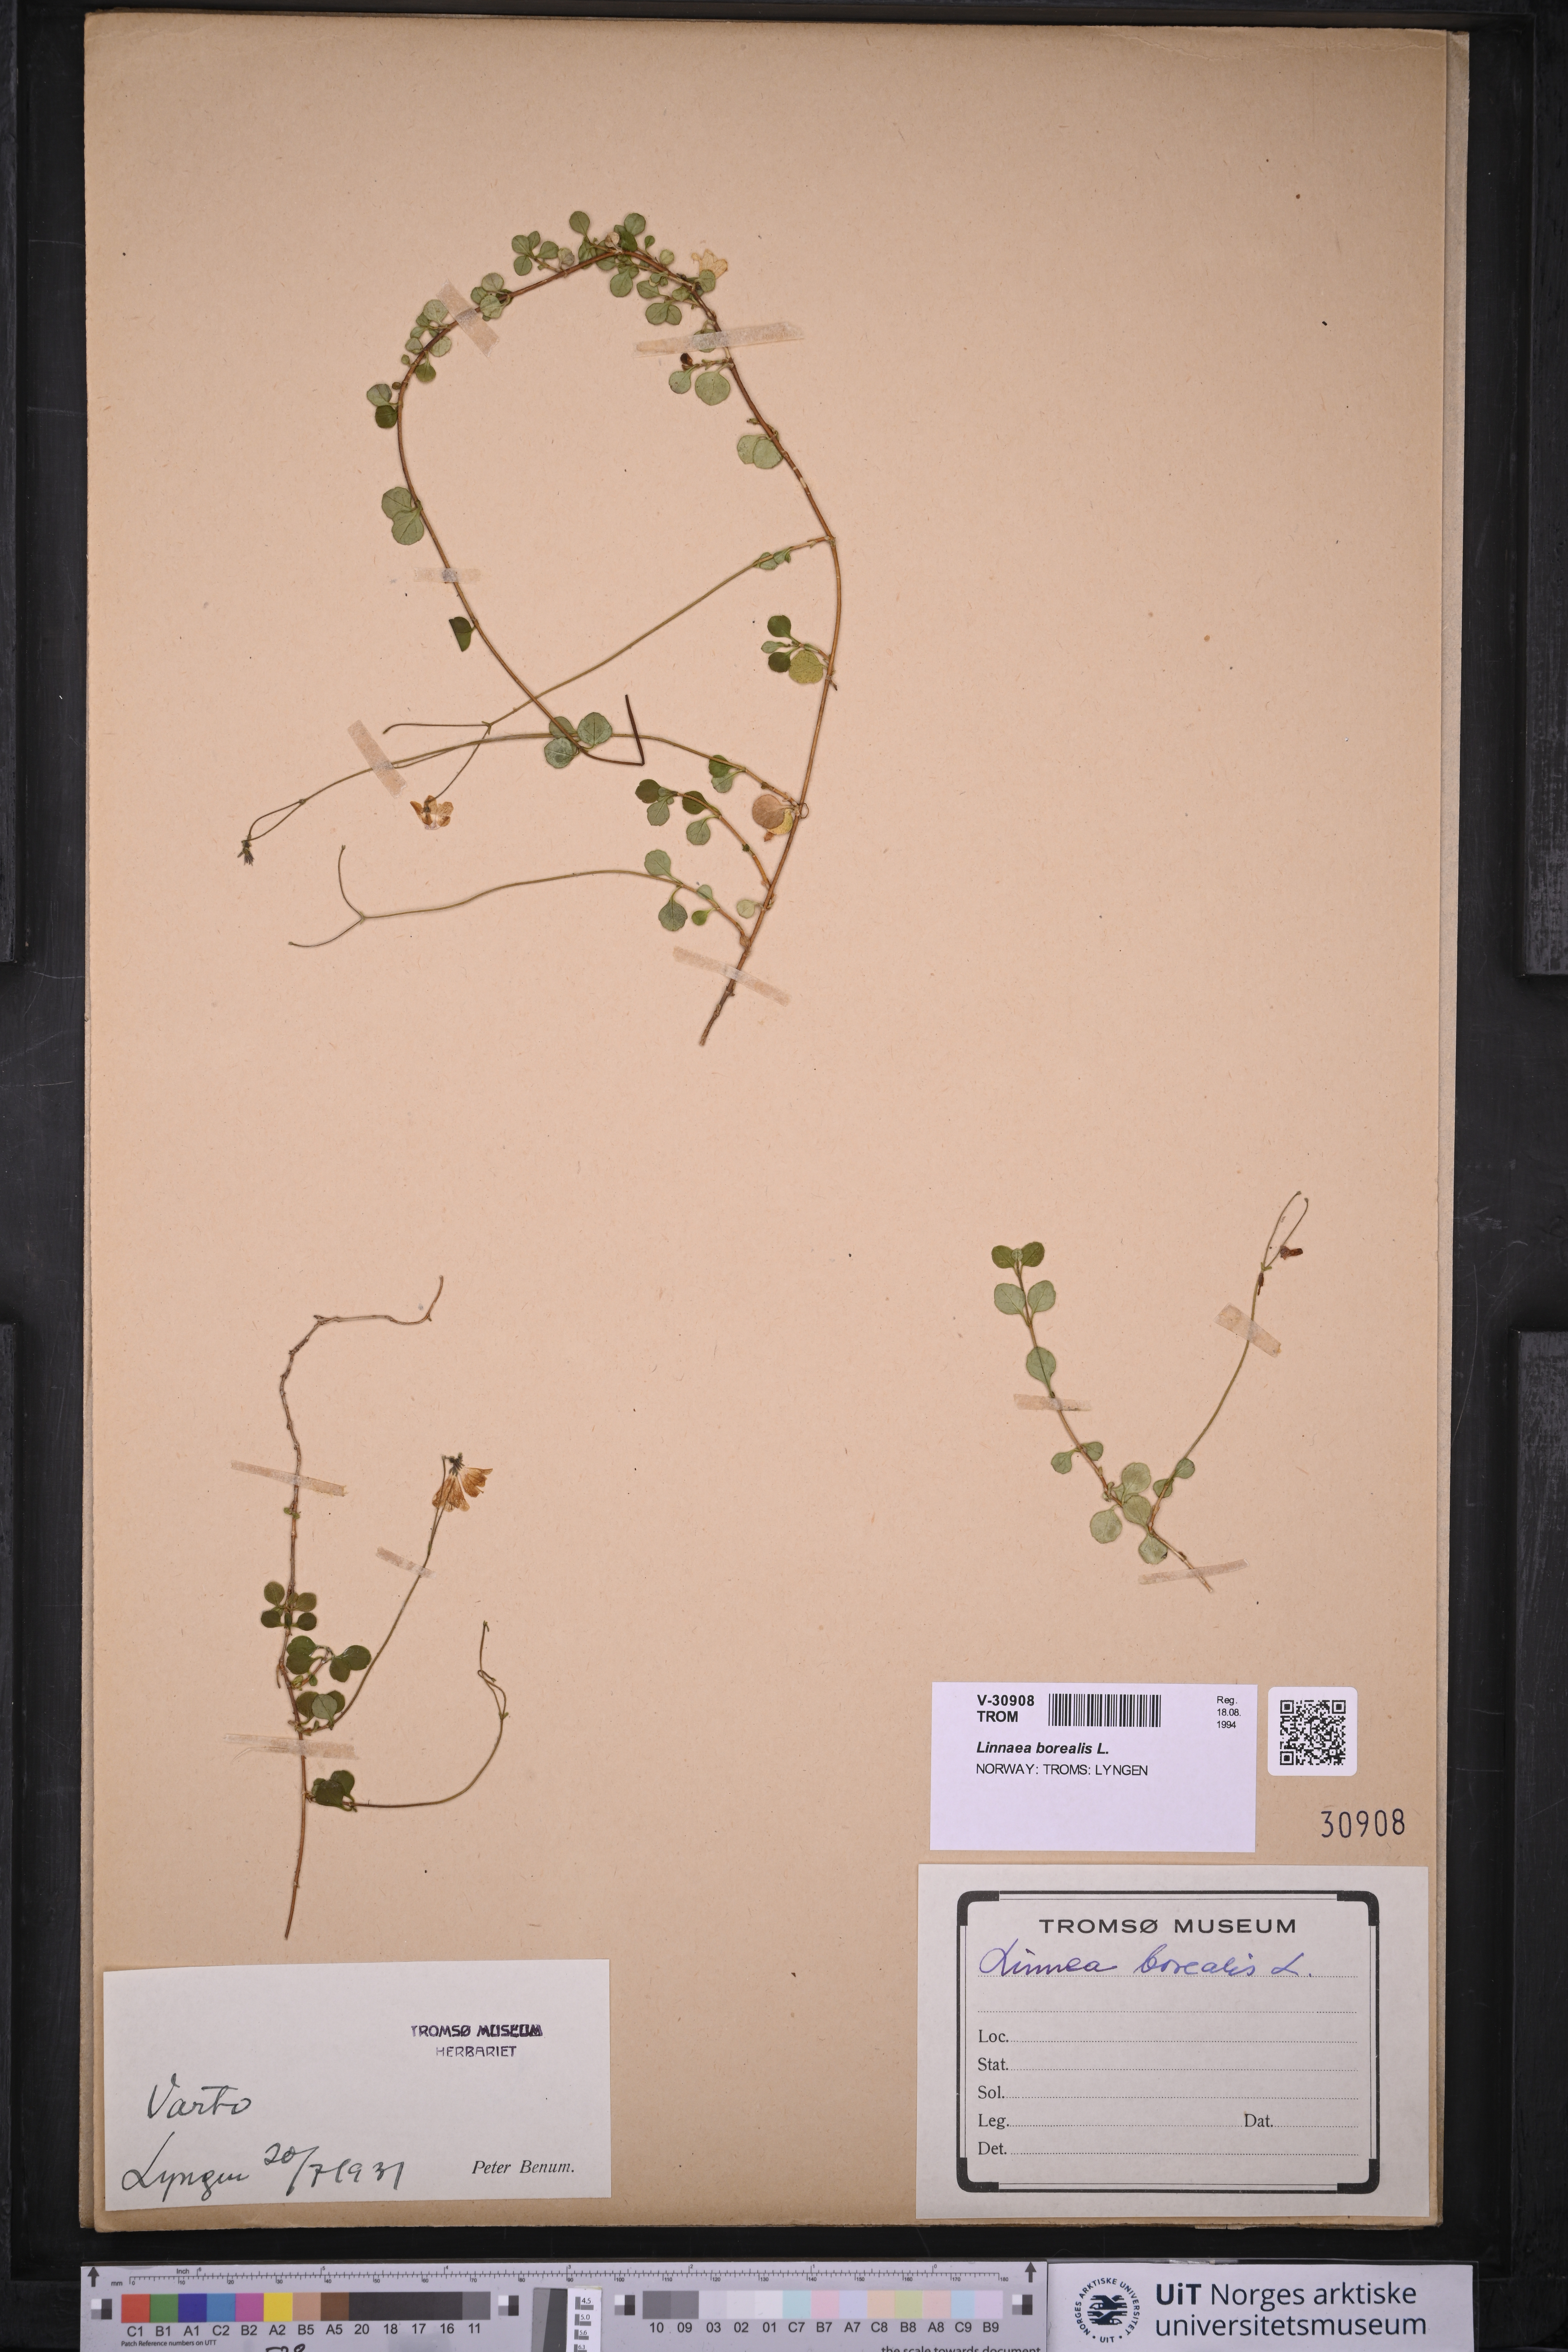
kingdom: Plantae
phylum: Tracheophyta
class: Magnoliopsida
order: Dipsacales
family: Caprifoliaceae
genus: Linnaea
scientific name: Linnaea borealis
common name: Twinflower
